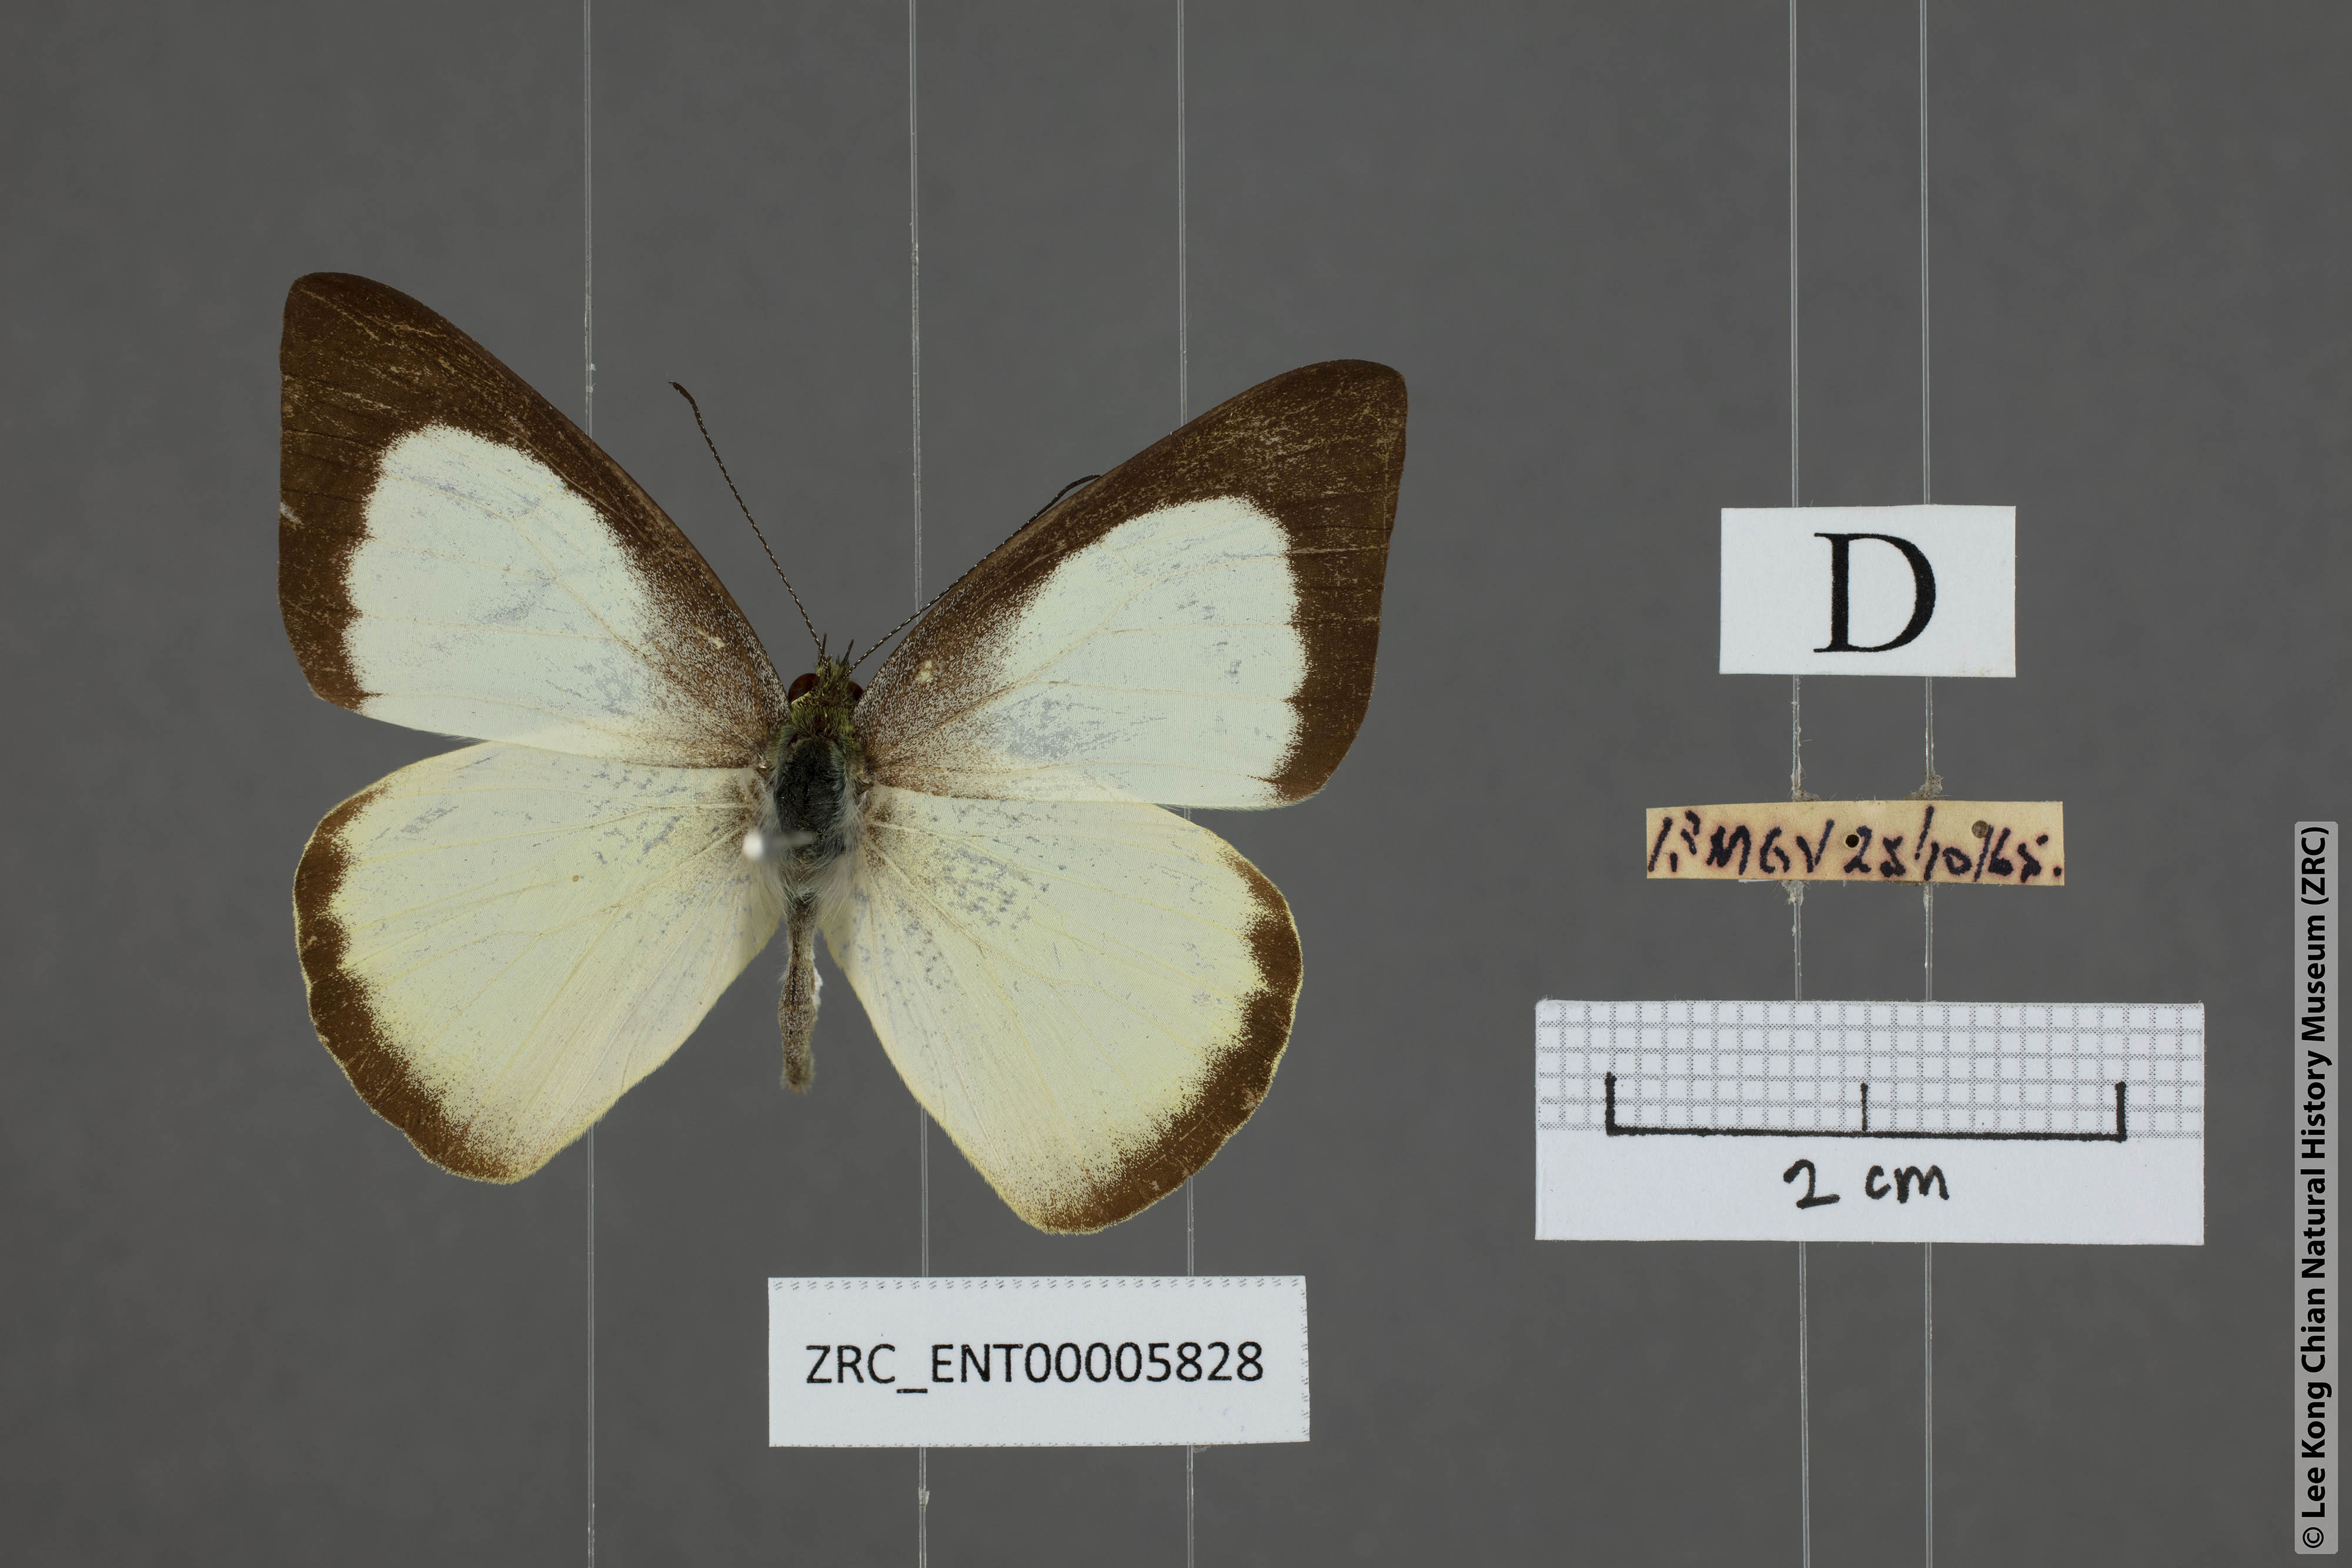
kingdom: Animalia
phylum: Arthropoda
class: Insecta
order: Lepidoptera
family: Pieridae
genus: Saletara
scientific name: Saletara liberia
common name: Pointed albatross
